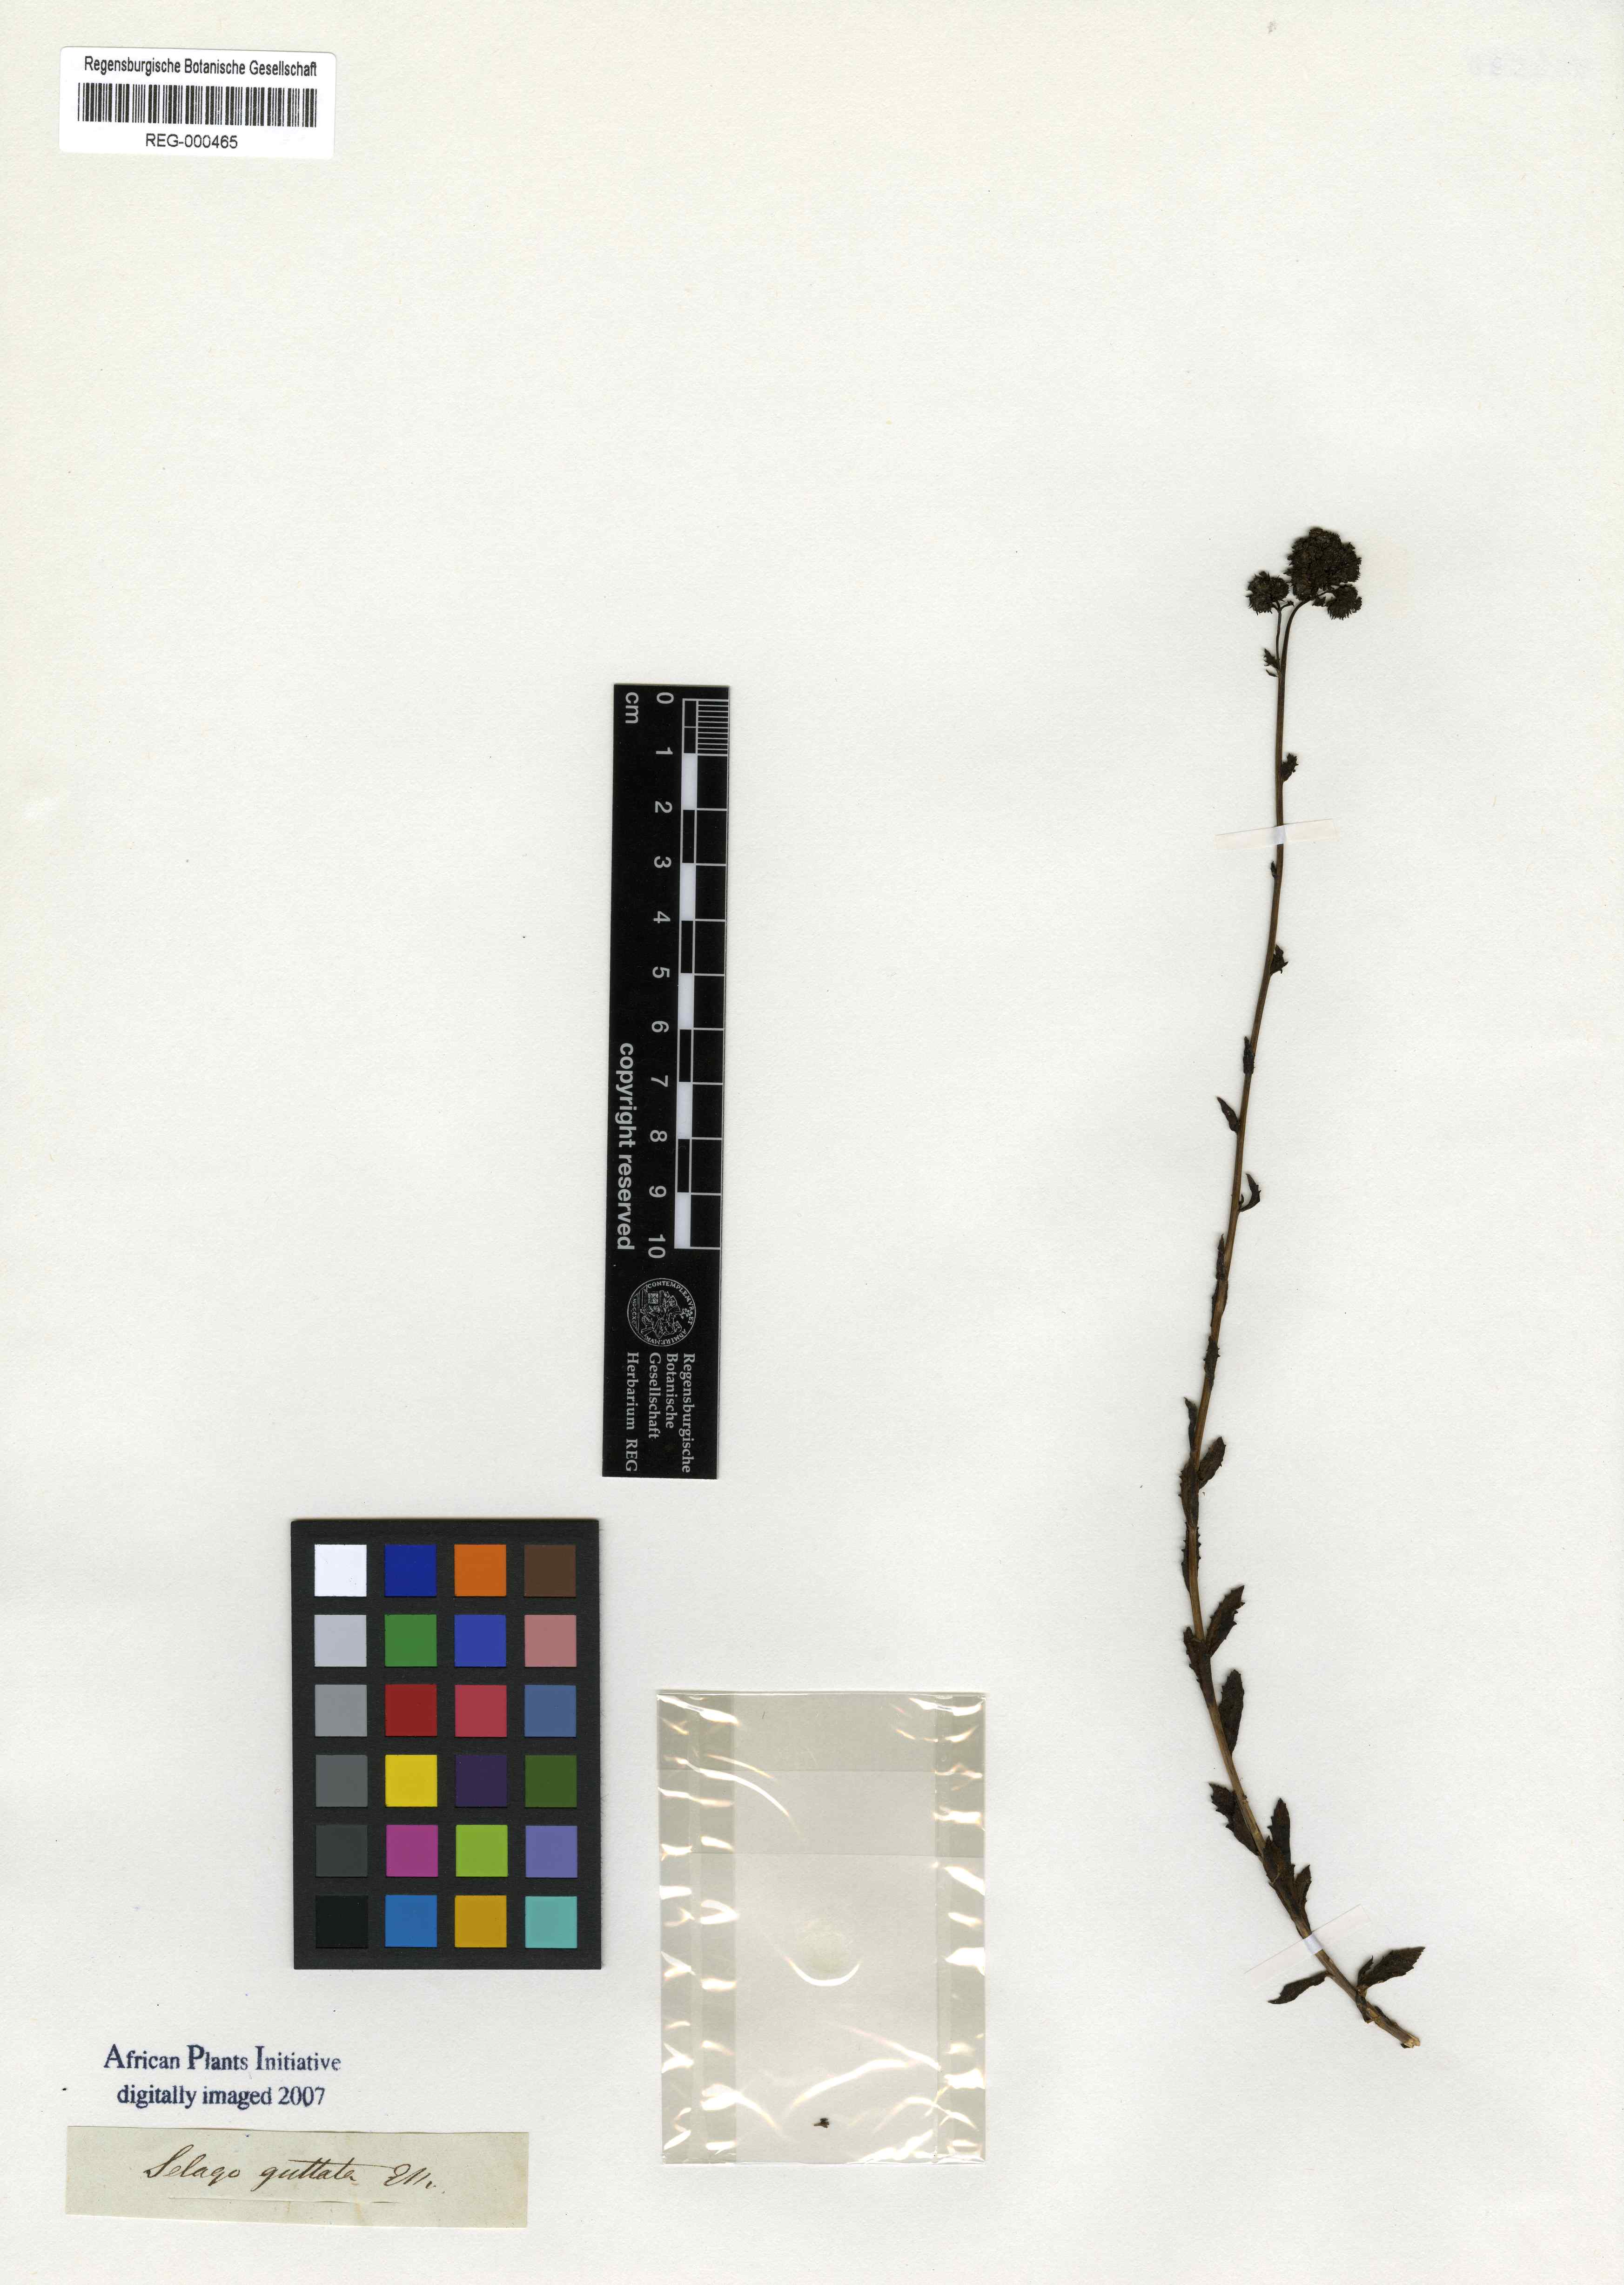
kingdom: Plantae
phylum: Tracheophyta
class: Magnoliopsida
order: Lamiales
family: Scrophulariaceae
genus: Pseudoselago
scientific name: Pseudoselago guttata
